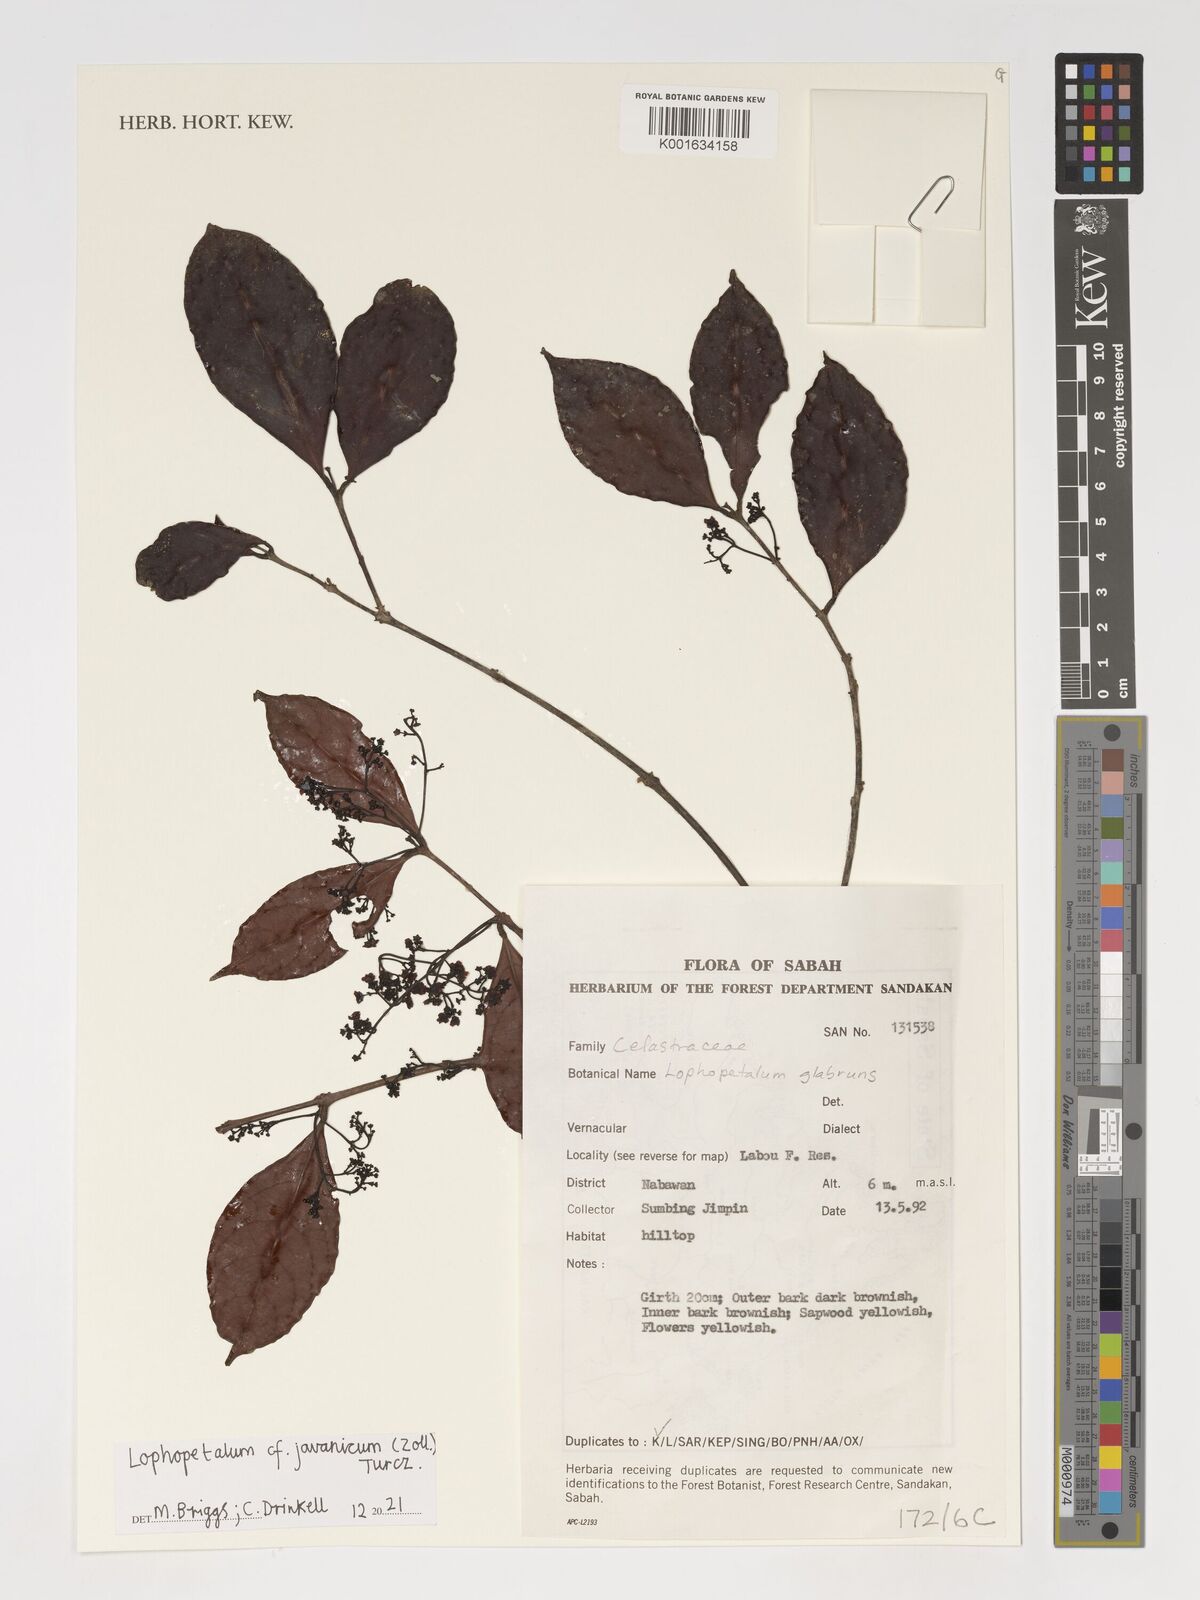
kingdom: Plantae
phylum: Tracheophyta
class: Magnoliopsida
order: Celastrales
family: Celastraceae
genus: Lophopetalum
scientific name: Lophopetalum javanicum
